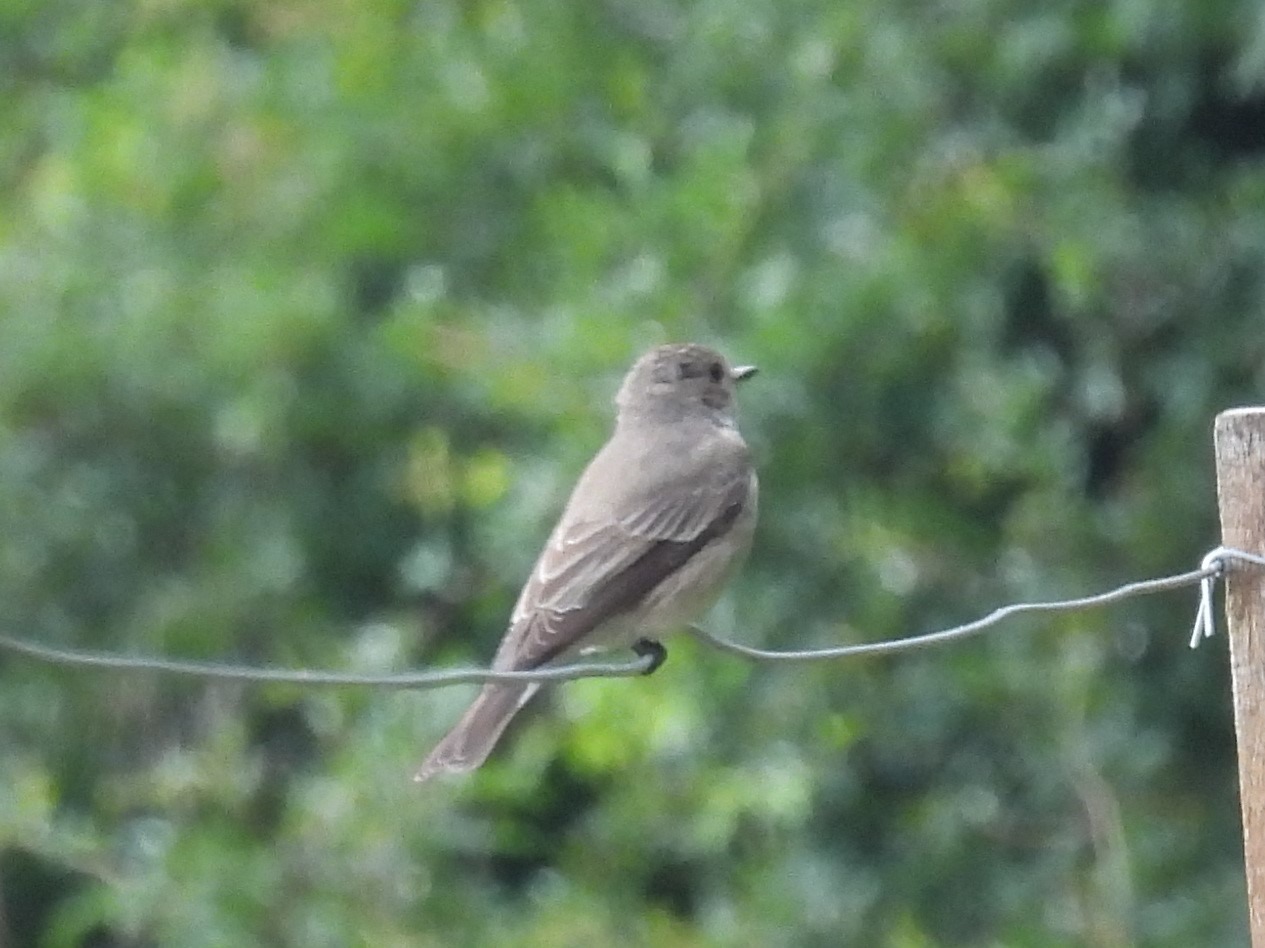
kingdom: Animalia
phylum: Chordata
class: Aves
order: Passeriformes
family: Muscicapidae
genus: Muscicapa
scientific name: Muscicapa striata
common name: Grå fluesnapper
